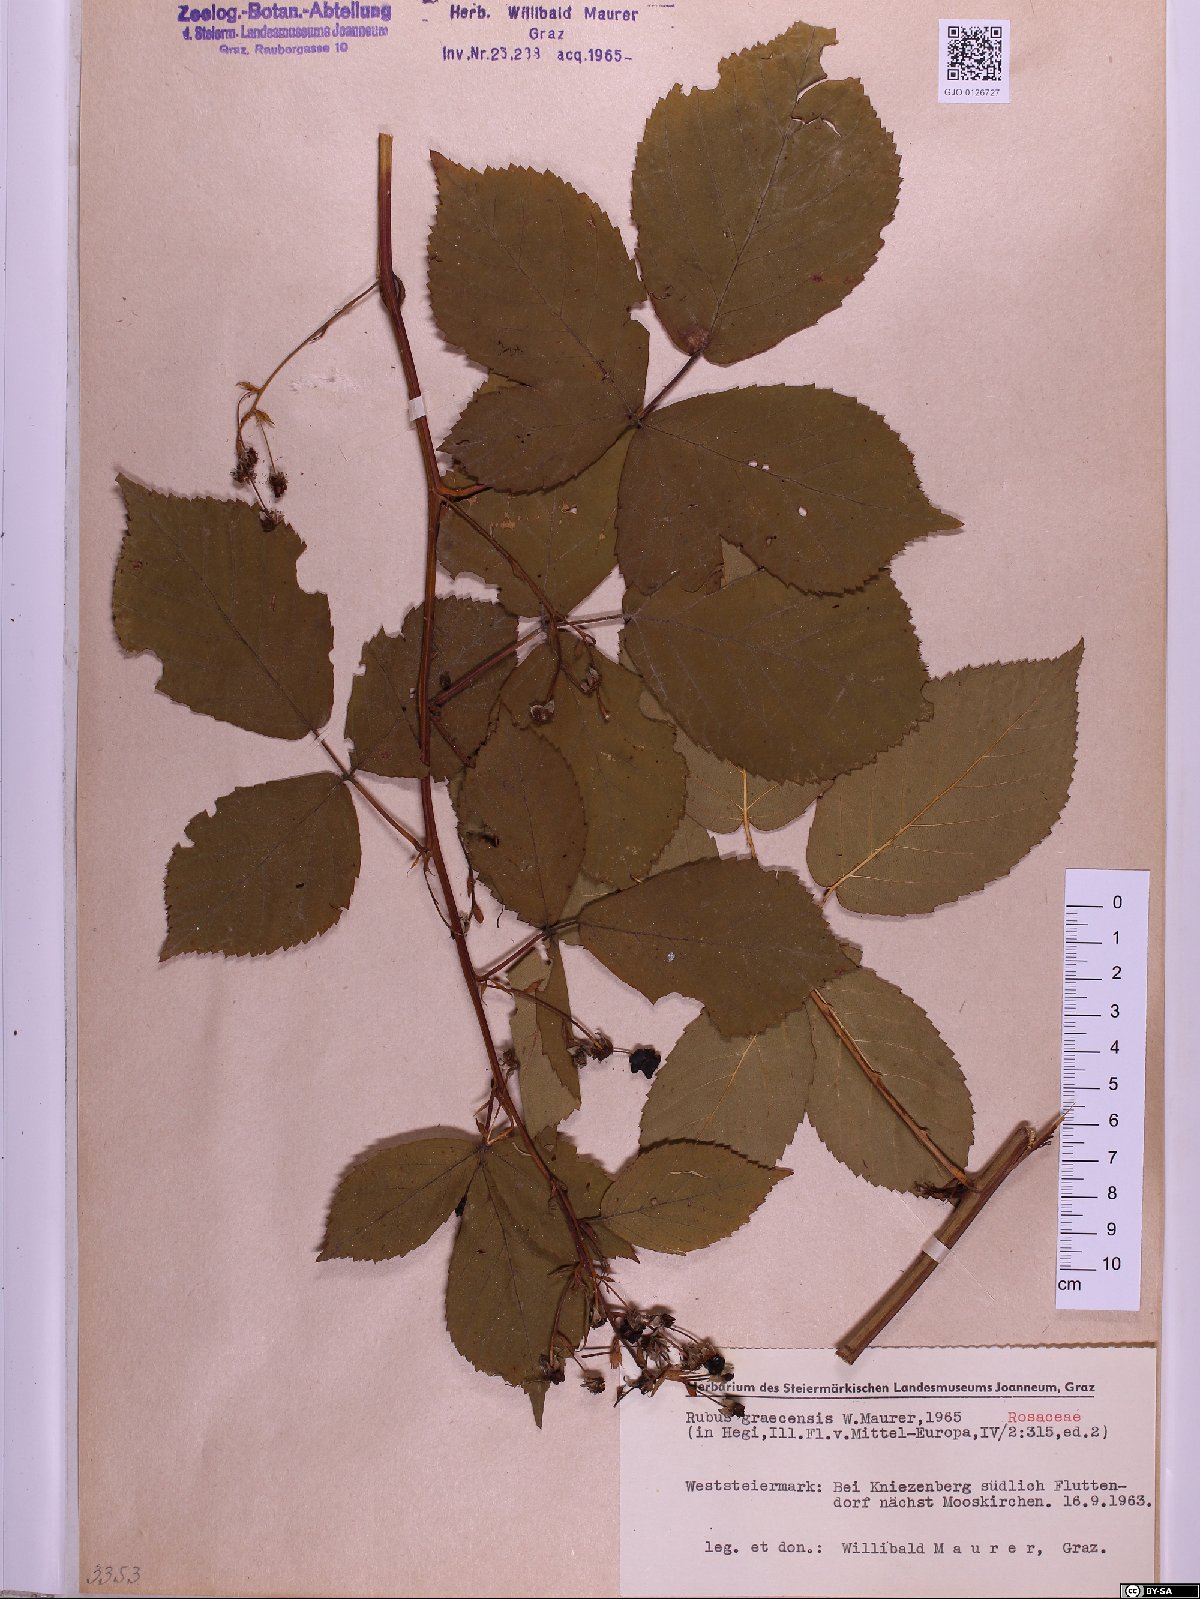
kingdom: Plantae
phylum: Tracheophyta
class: Magnoliopsida
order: Rosales
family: Rosaceae
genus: Rubus
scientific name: Rubus graecensis
